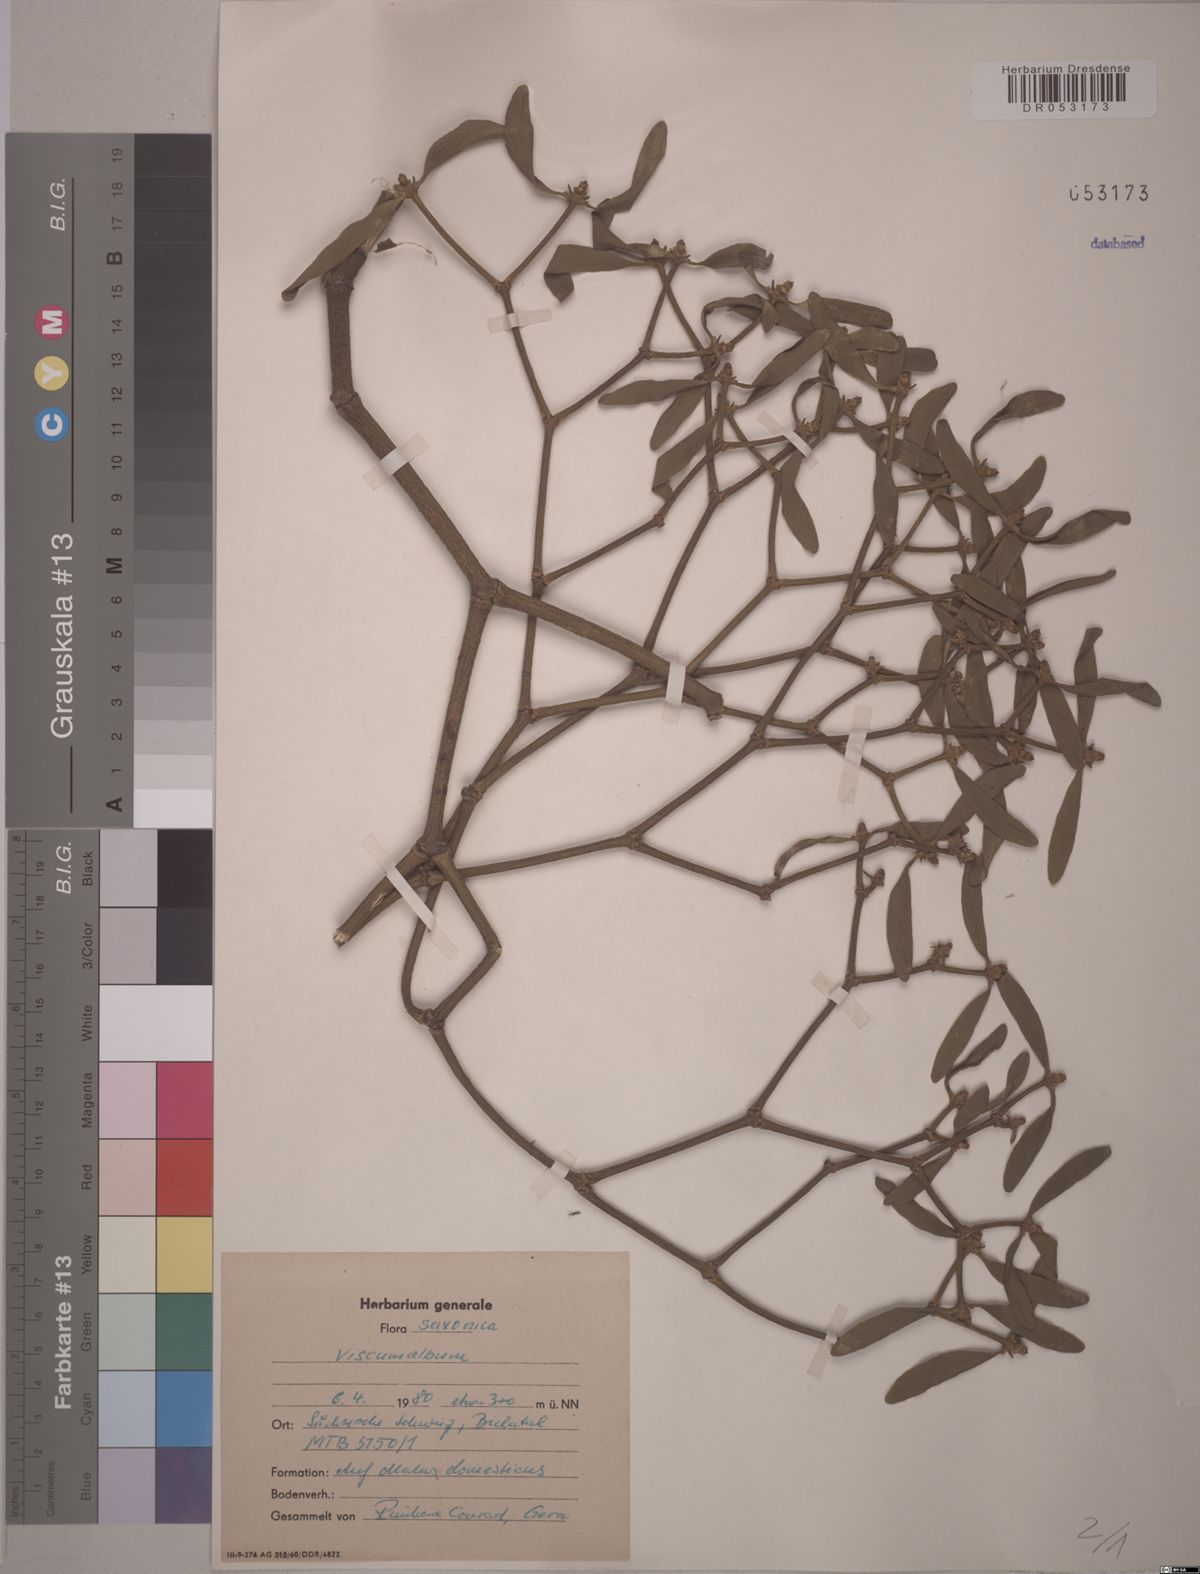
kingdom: Plantae
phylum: Tracheophyta
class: Magnoliopsida
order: Santalales
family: Viscaceae
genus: Viscum
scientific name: Viscum album
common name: Mistletoe
